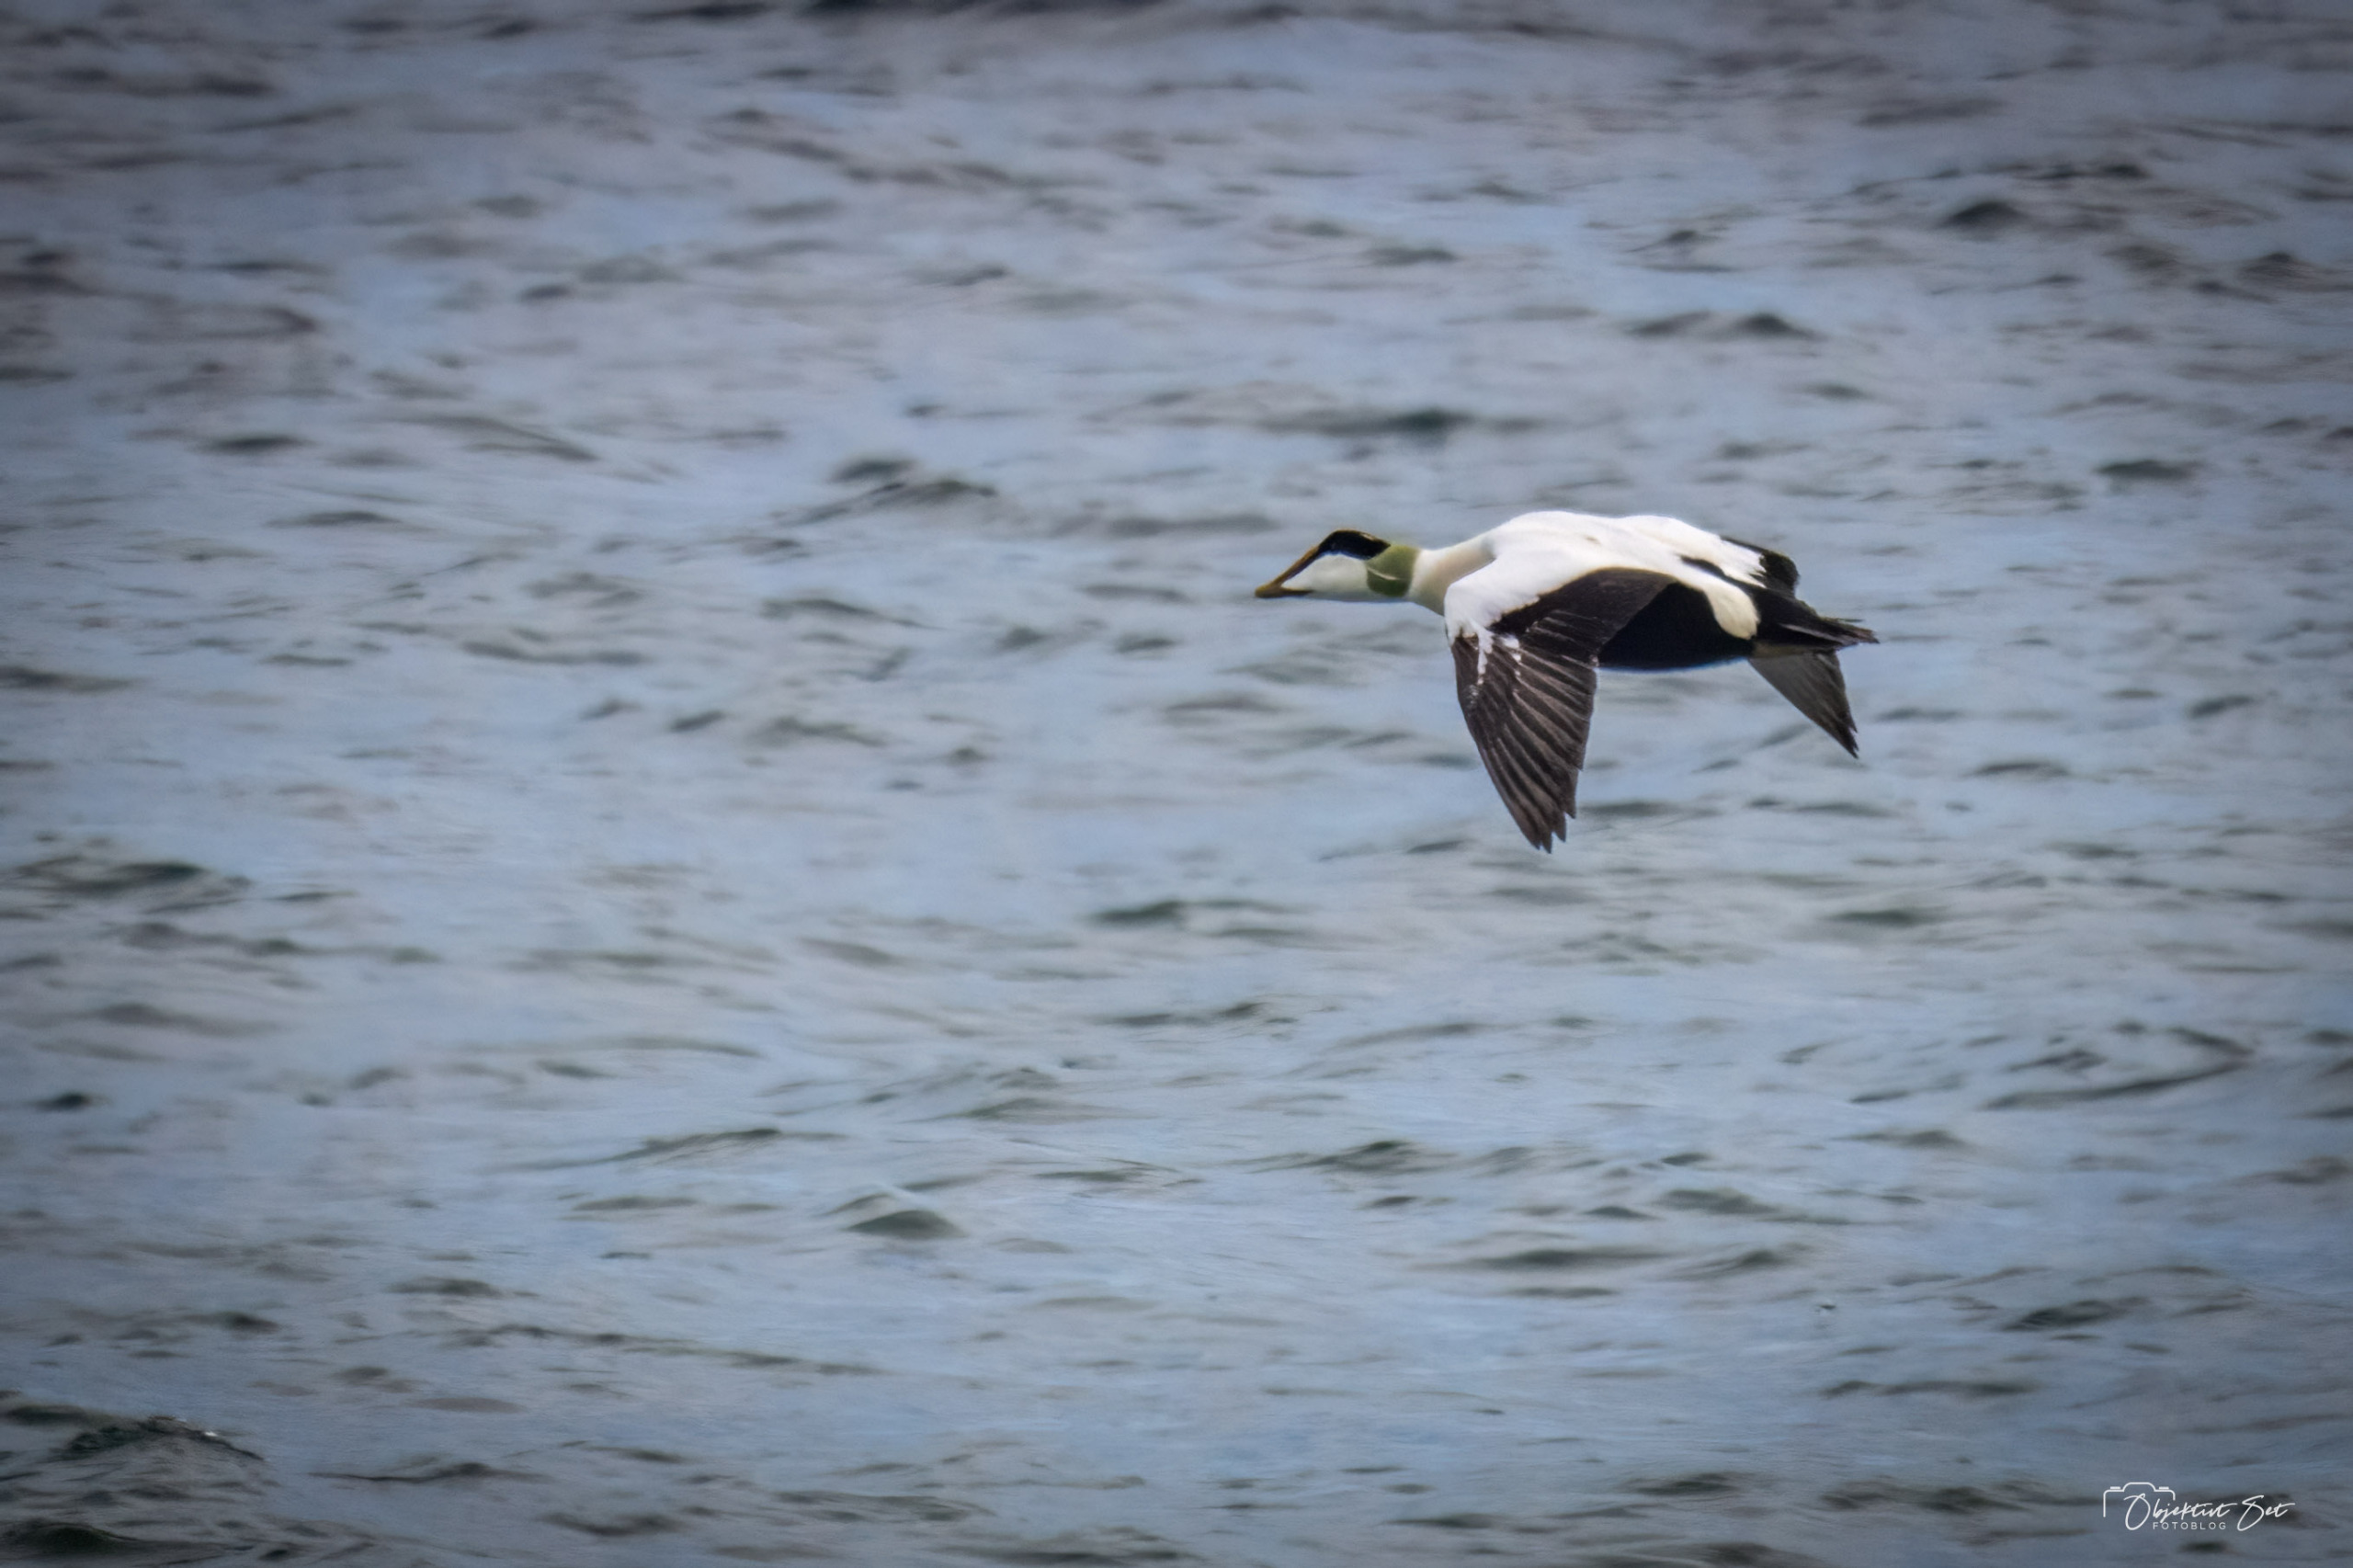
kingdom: Animalia
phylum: Chordata
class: Aves
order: Anseriformes
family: Anatidae
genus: Somateria
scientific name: Somateria mollissima
